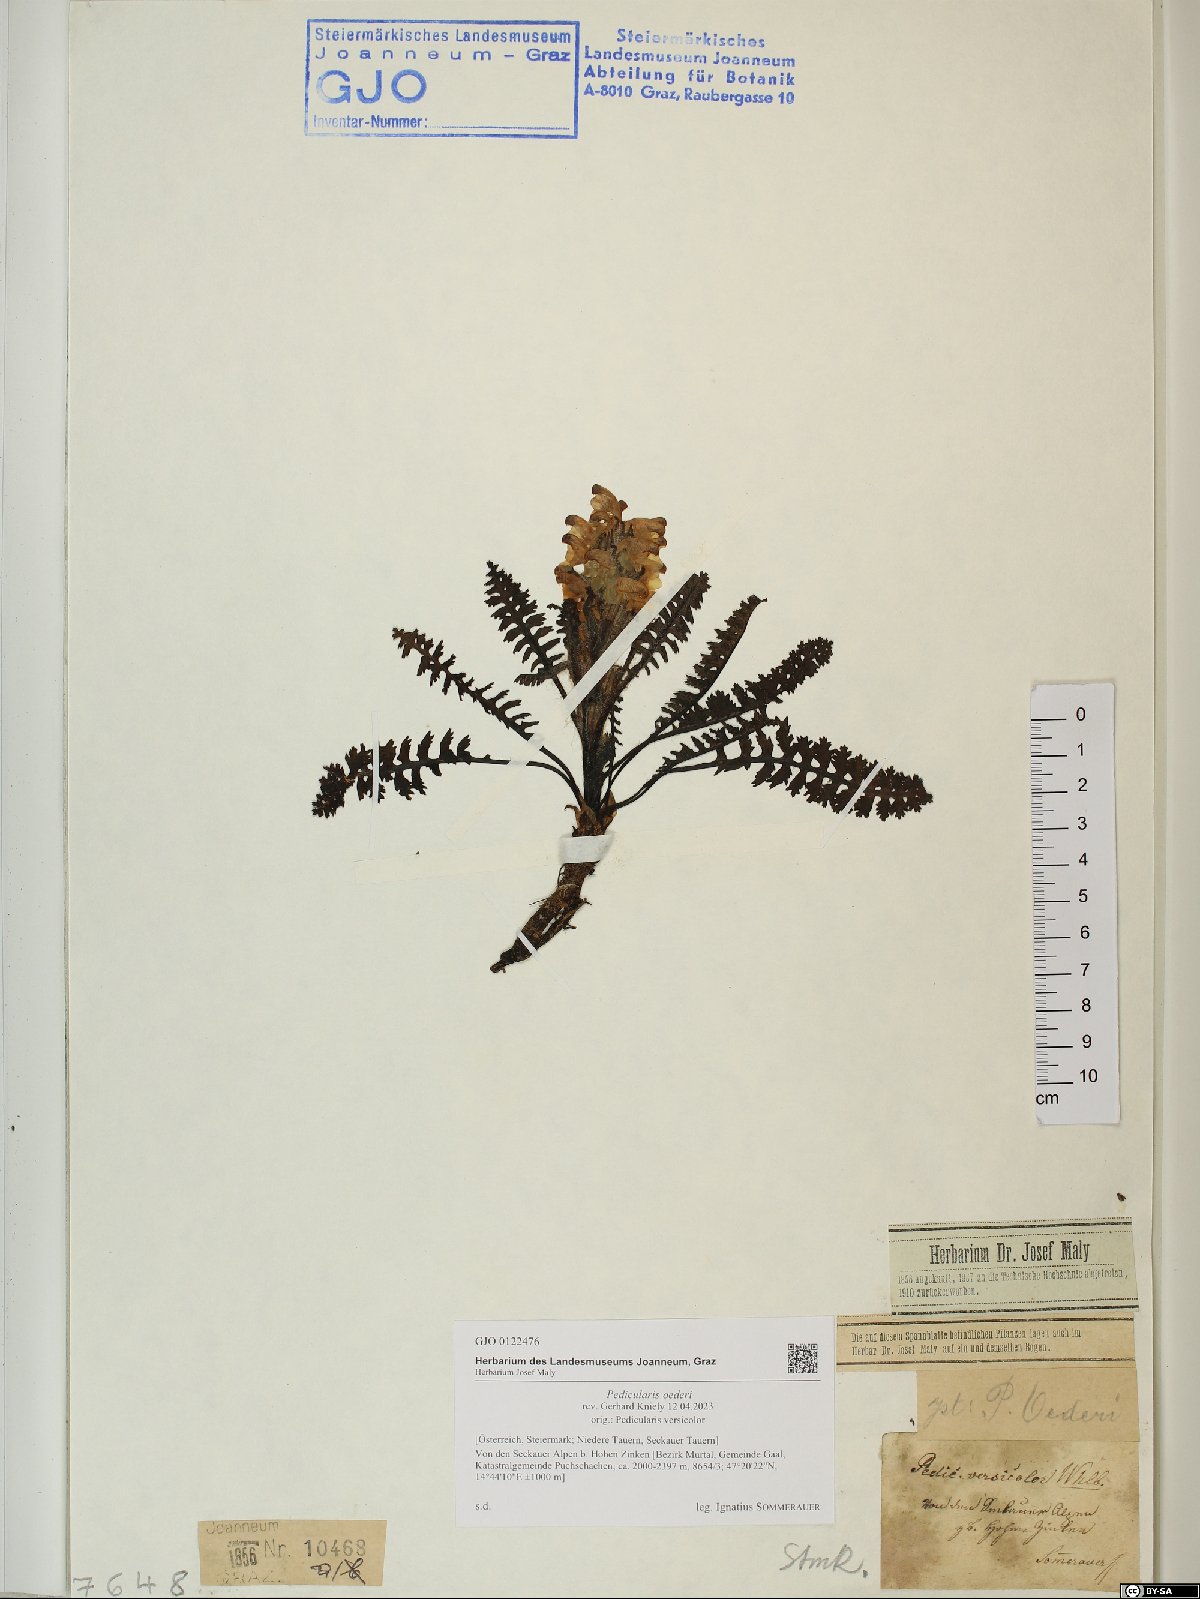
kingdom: Plantae
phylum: Tracheophyta
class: Magnoliopsida
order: Lamiales
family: Orobanchaceae
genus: Pedicularis
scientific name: Pedicularis oederi
